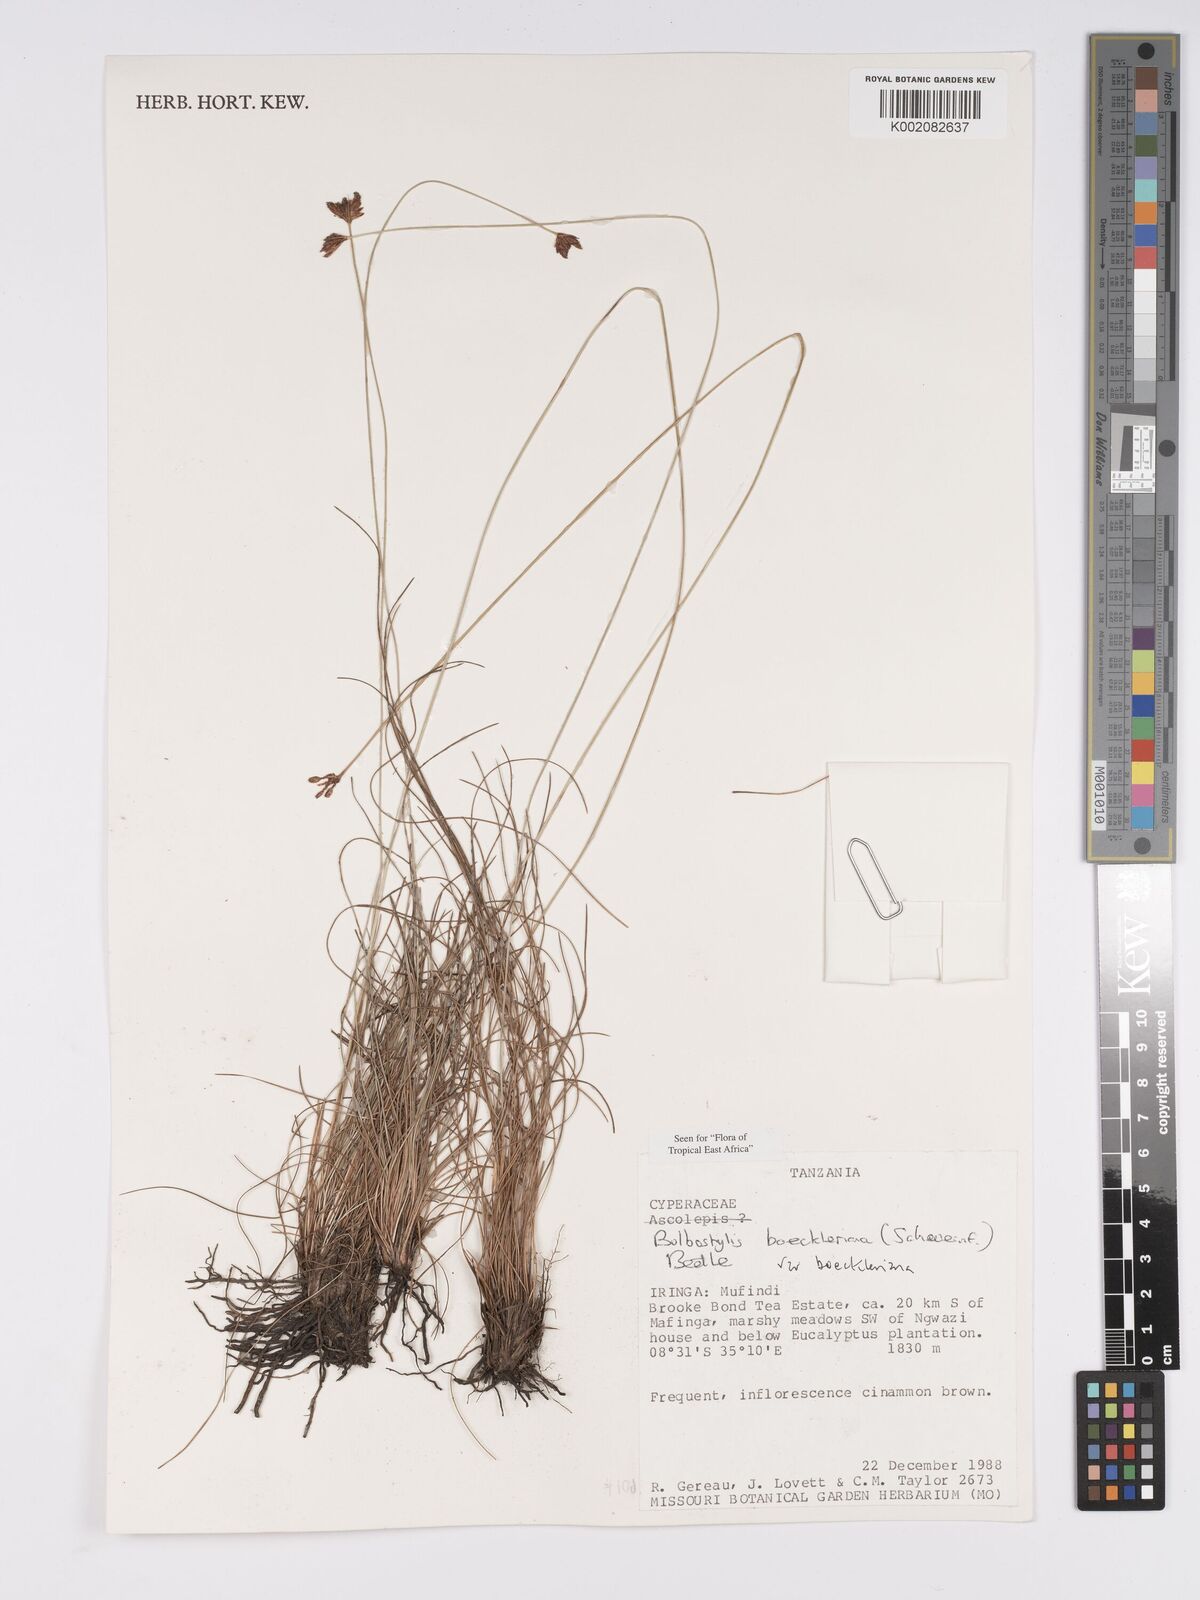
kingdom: Plantae
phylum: Tracheophyta
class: Liliopsida
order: Poales
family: Cyperaceae
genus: Bulbostylis
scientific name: Bulbostylis boeckeleriana
